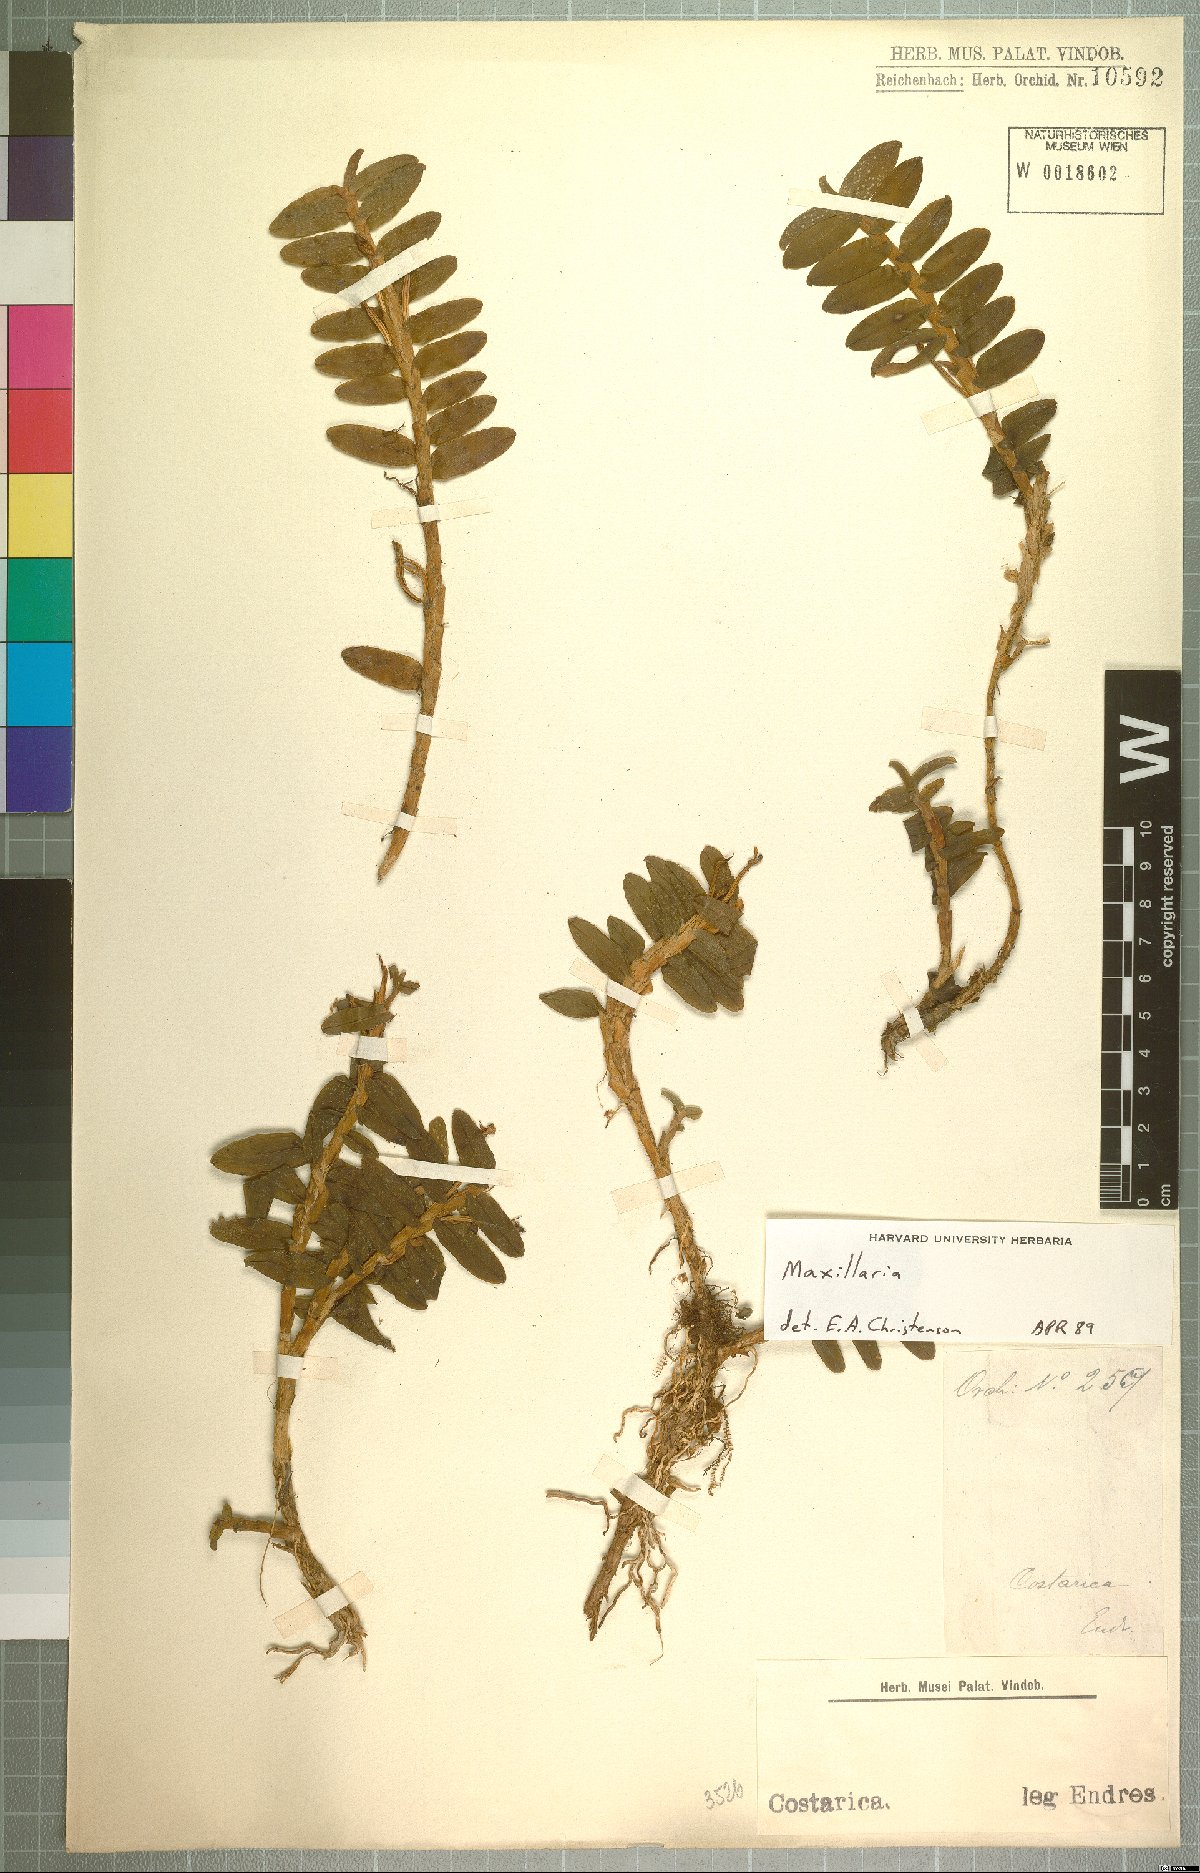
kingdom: Plantae
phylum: Tracheophyta
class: Liliopsida
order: Asparagales
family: Orchidaceae
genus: Maxillaria
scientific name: Maxillaria
